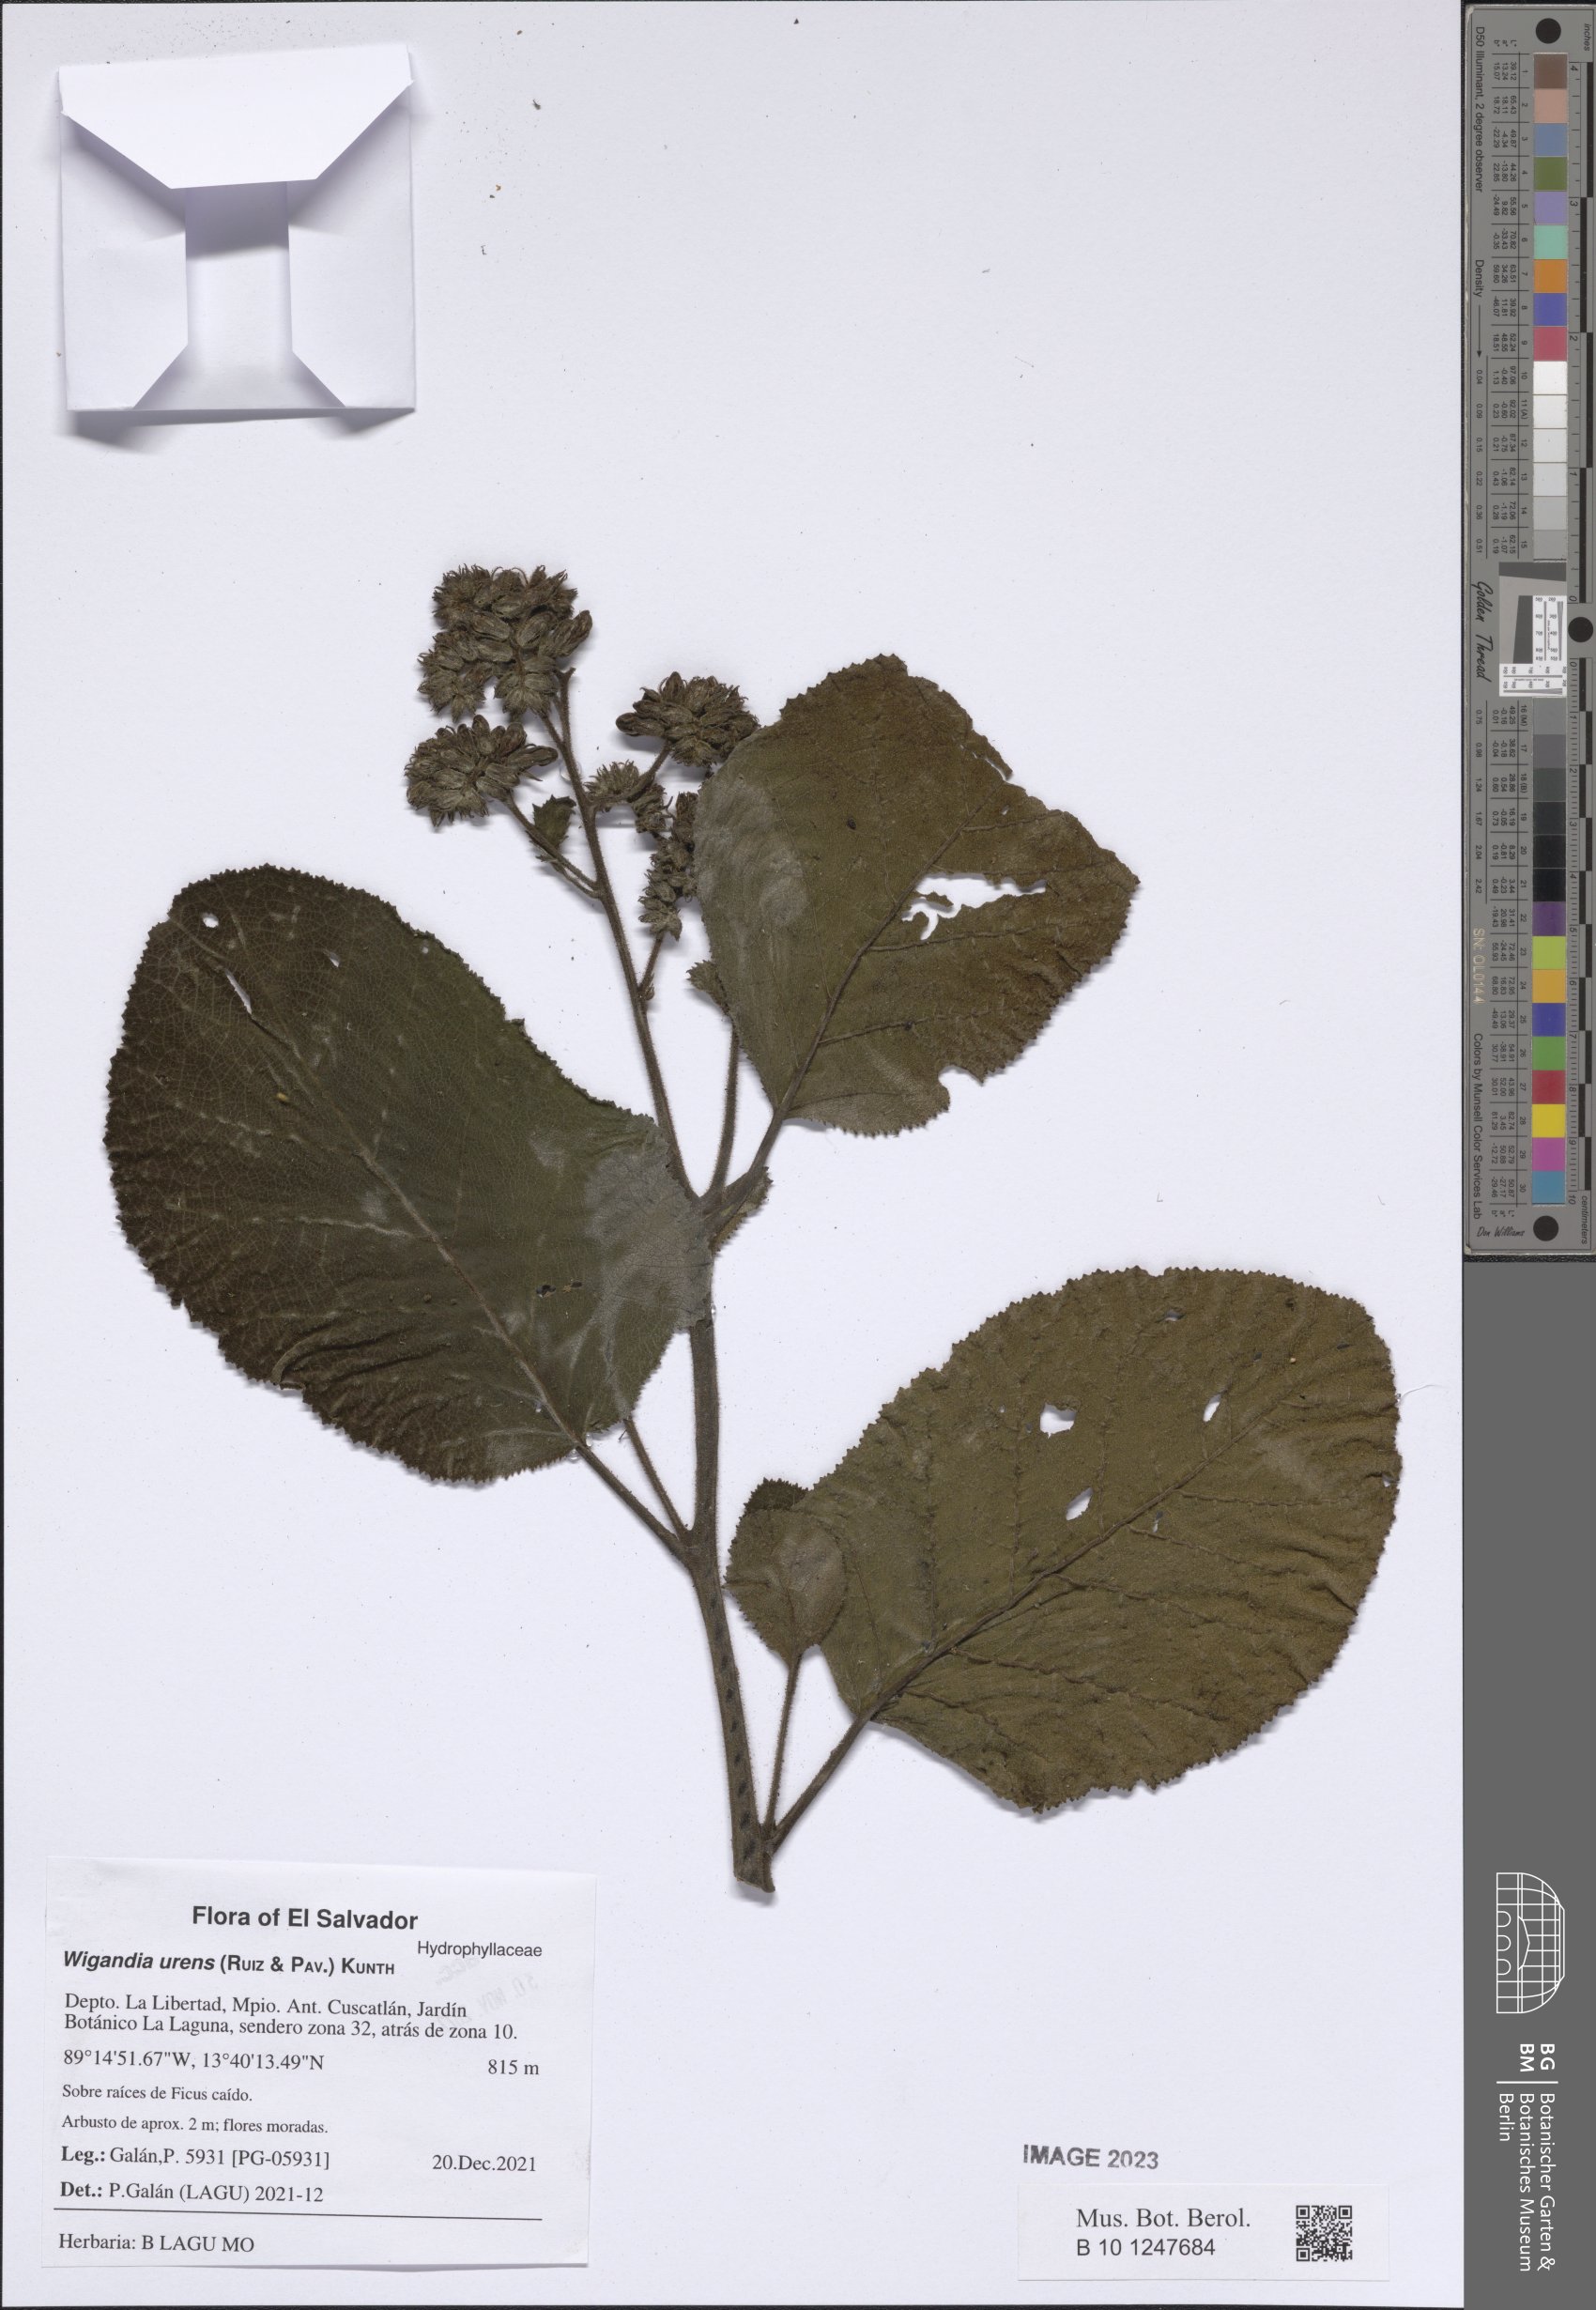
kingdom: Plantae
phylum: Tracheophyta
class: Magnoliopsida
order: Boraginales
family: Namaceae
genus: Wigandia
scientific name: Wigandia urens
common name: Caracus wigandia
